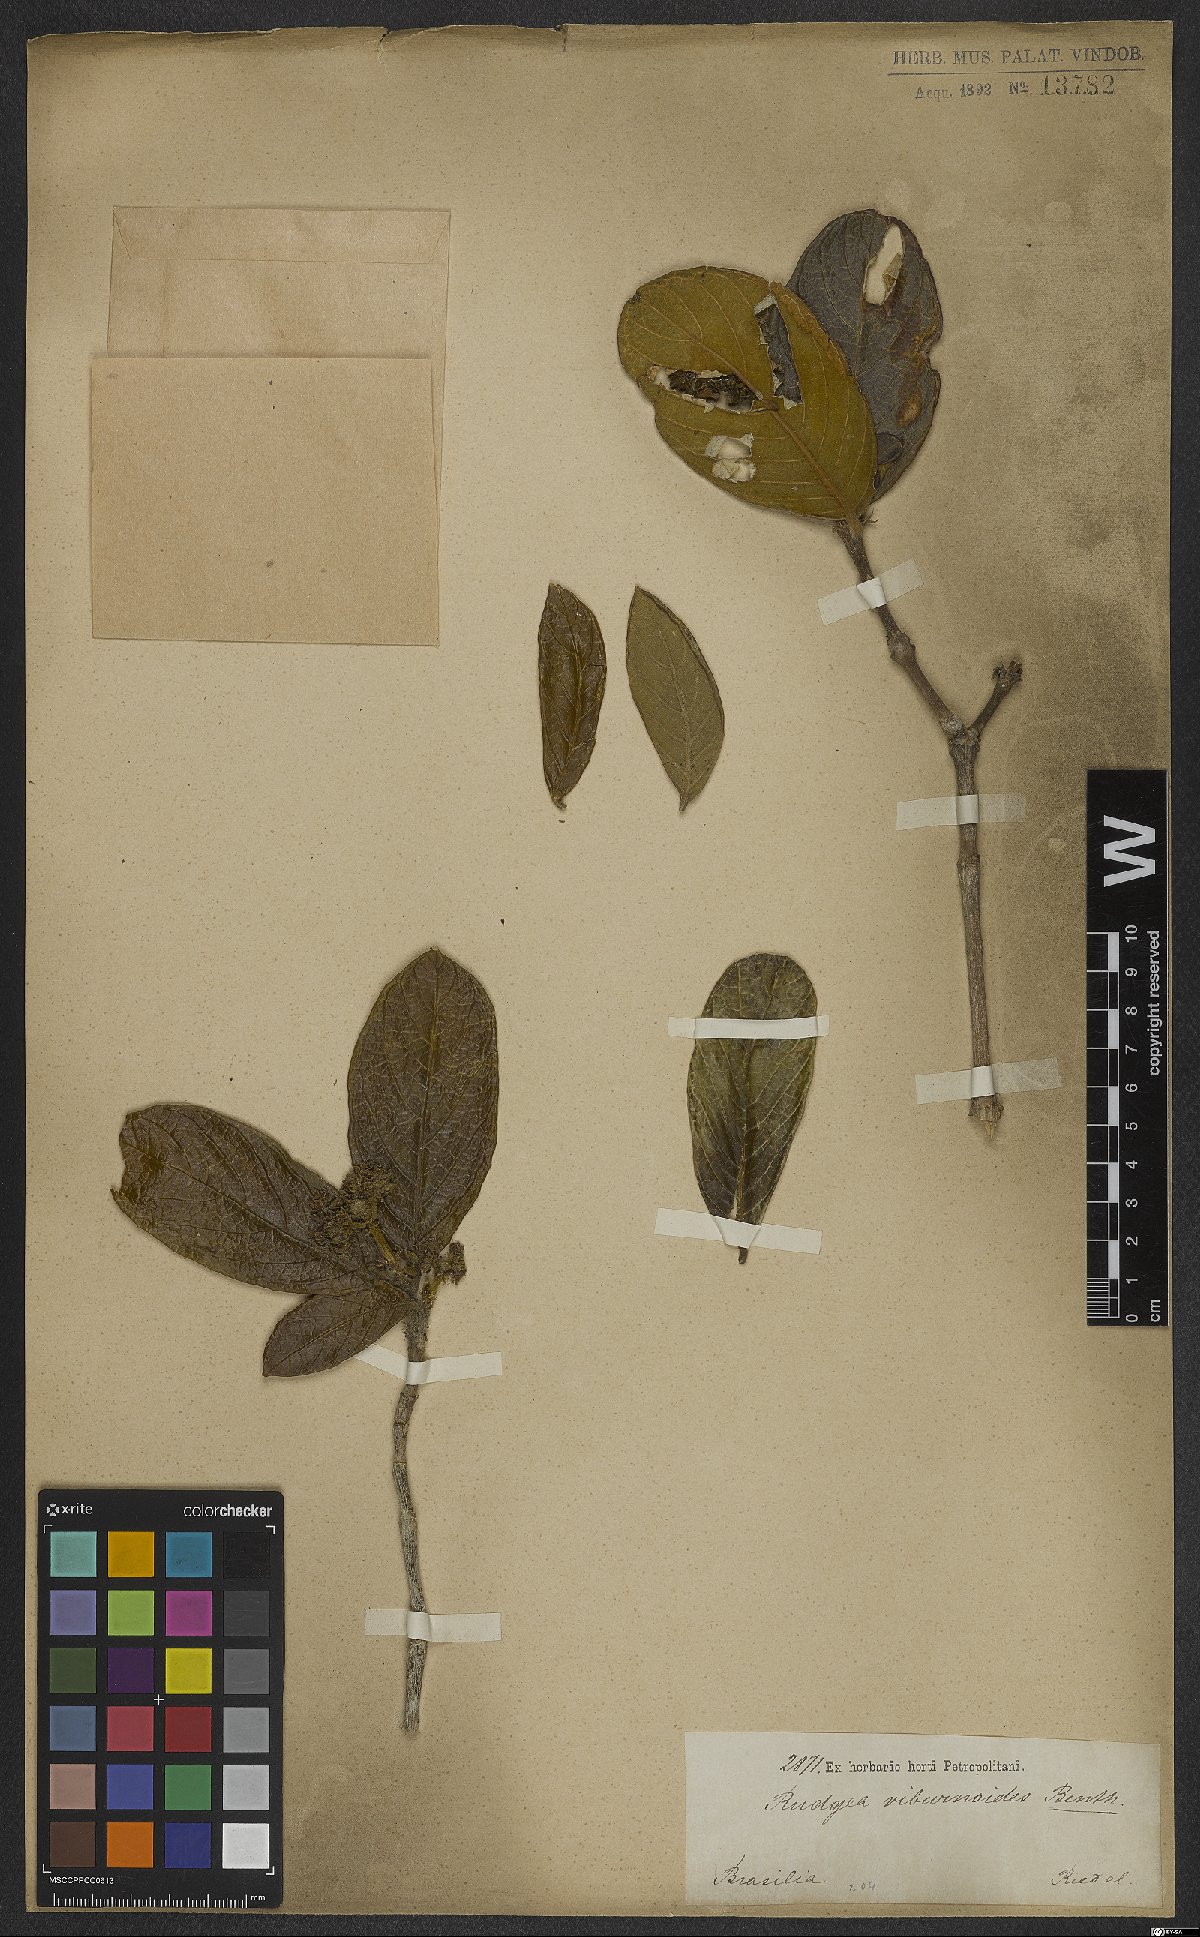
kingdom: Plantae
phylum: Tracheophyta
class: Magnoliopsida
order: Gentianales
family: Rubiaceae
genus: Rudgea
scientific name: Rudgea viburnoides
